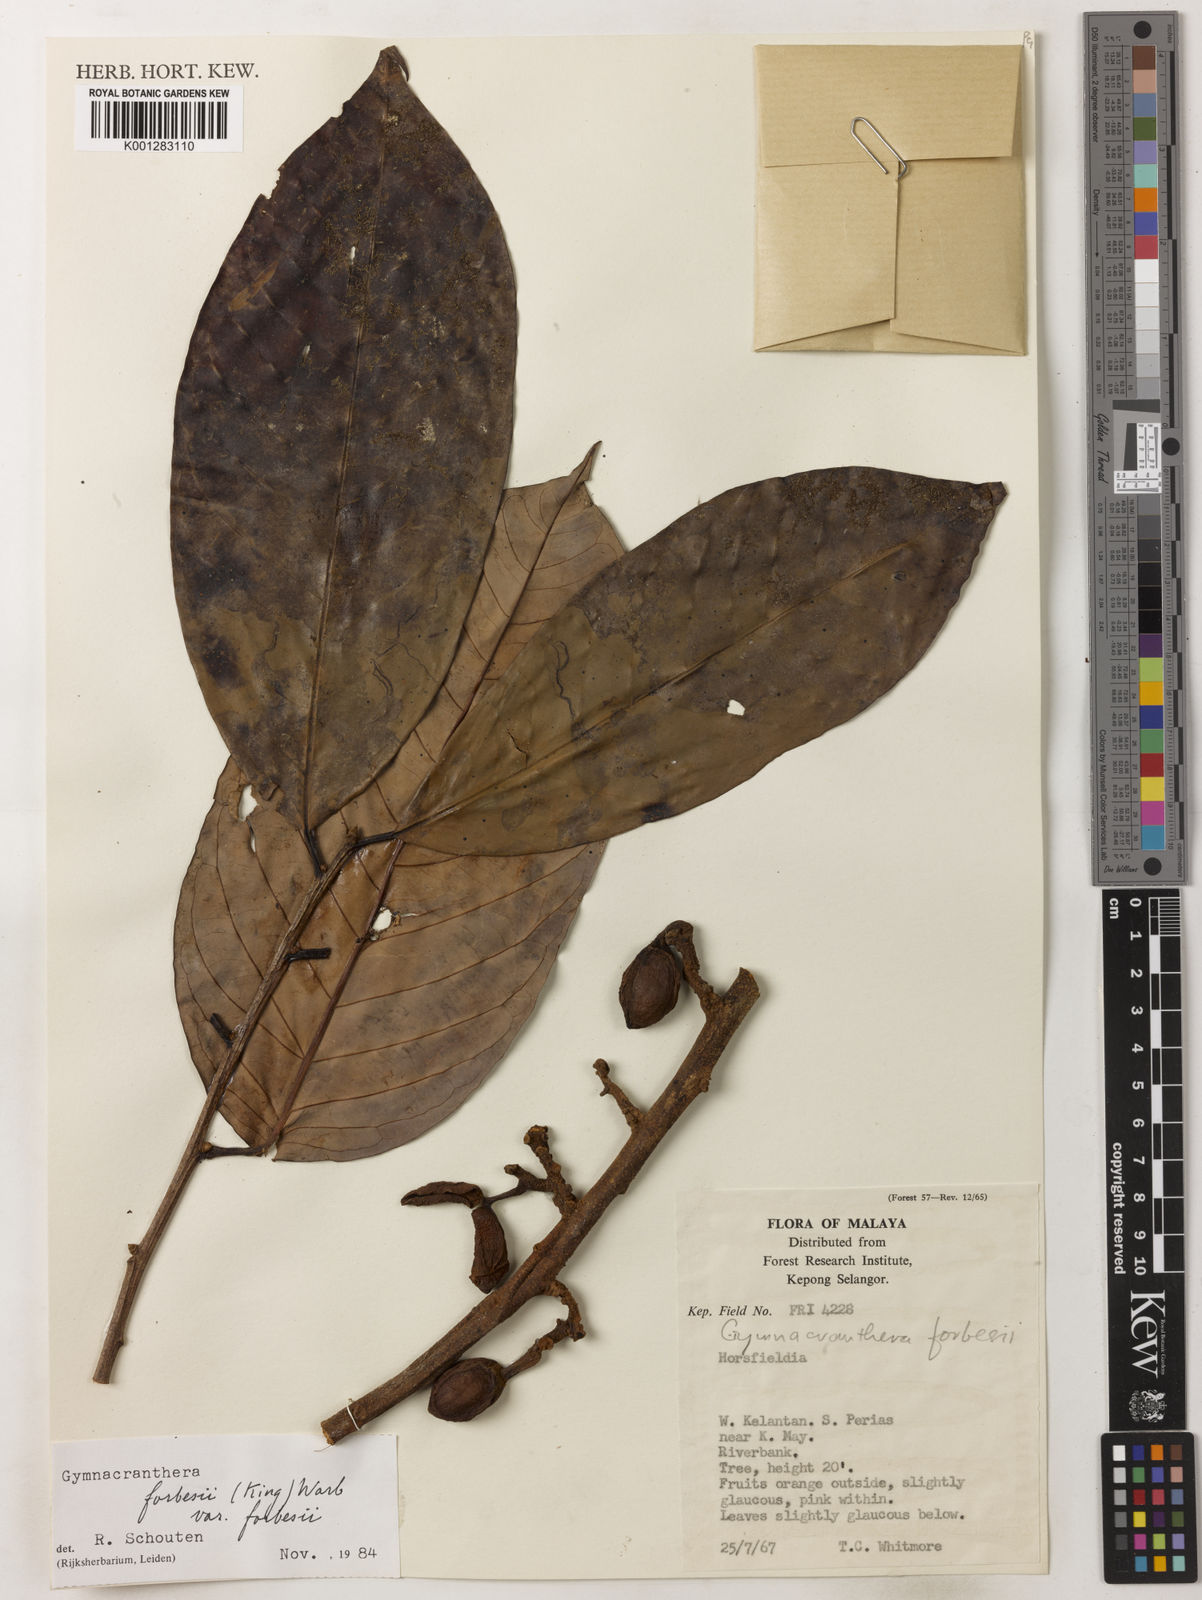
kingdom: Plantae
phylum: Tracheophyta
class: Magnoliopsida
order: Magnoliales
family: Myristicaceae
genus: Gymnacranthera
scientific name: Gymnacranthera forbesii
